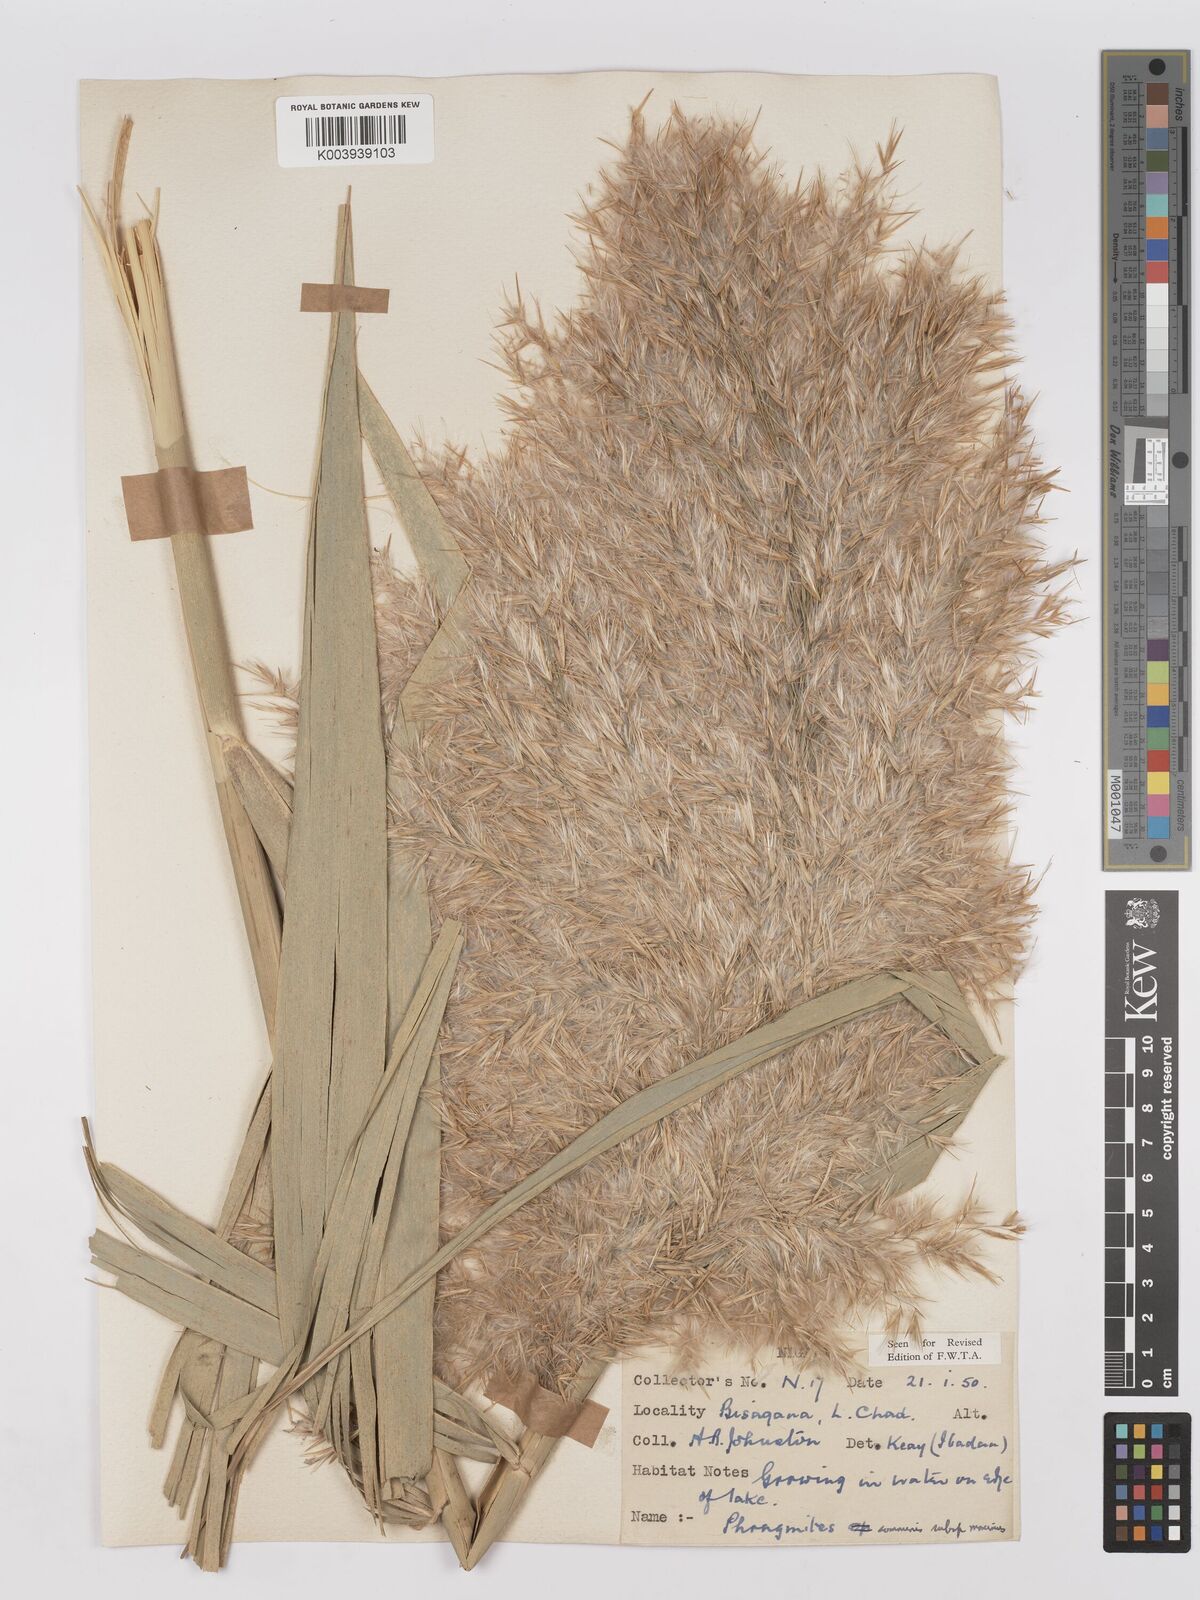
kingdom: Plantae
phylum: Tracheophyta
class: Liliopsida
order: Poales
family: Poaceae
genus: Phragmites
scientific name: Phragmites australis
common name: Common reed
